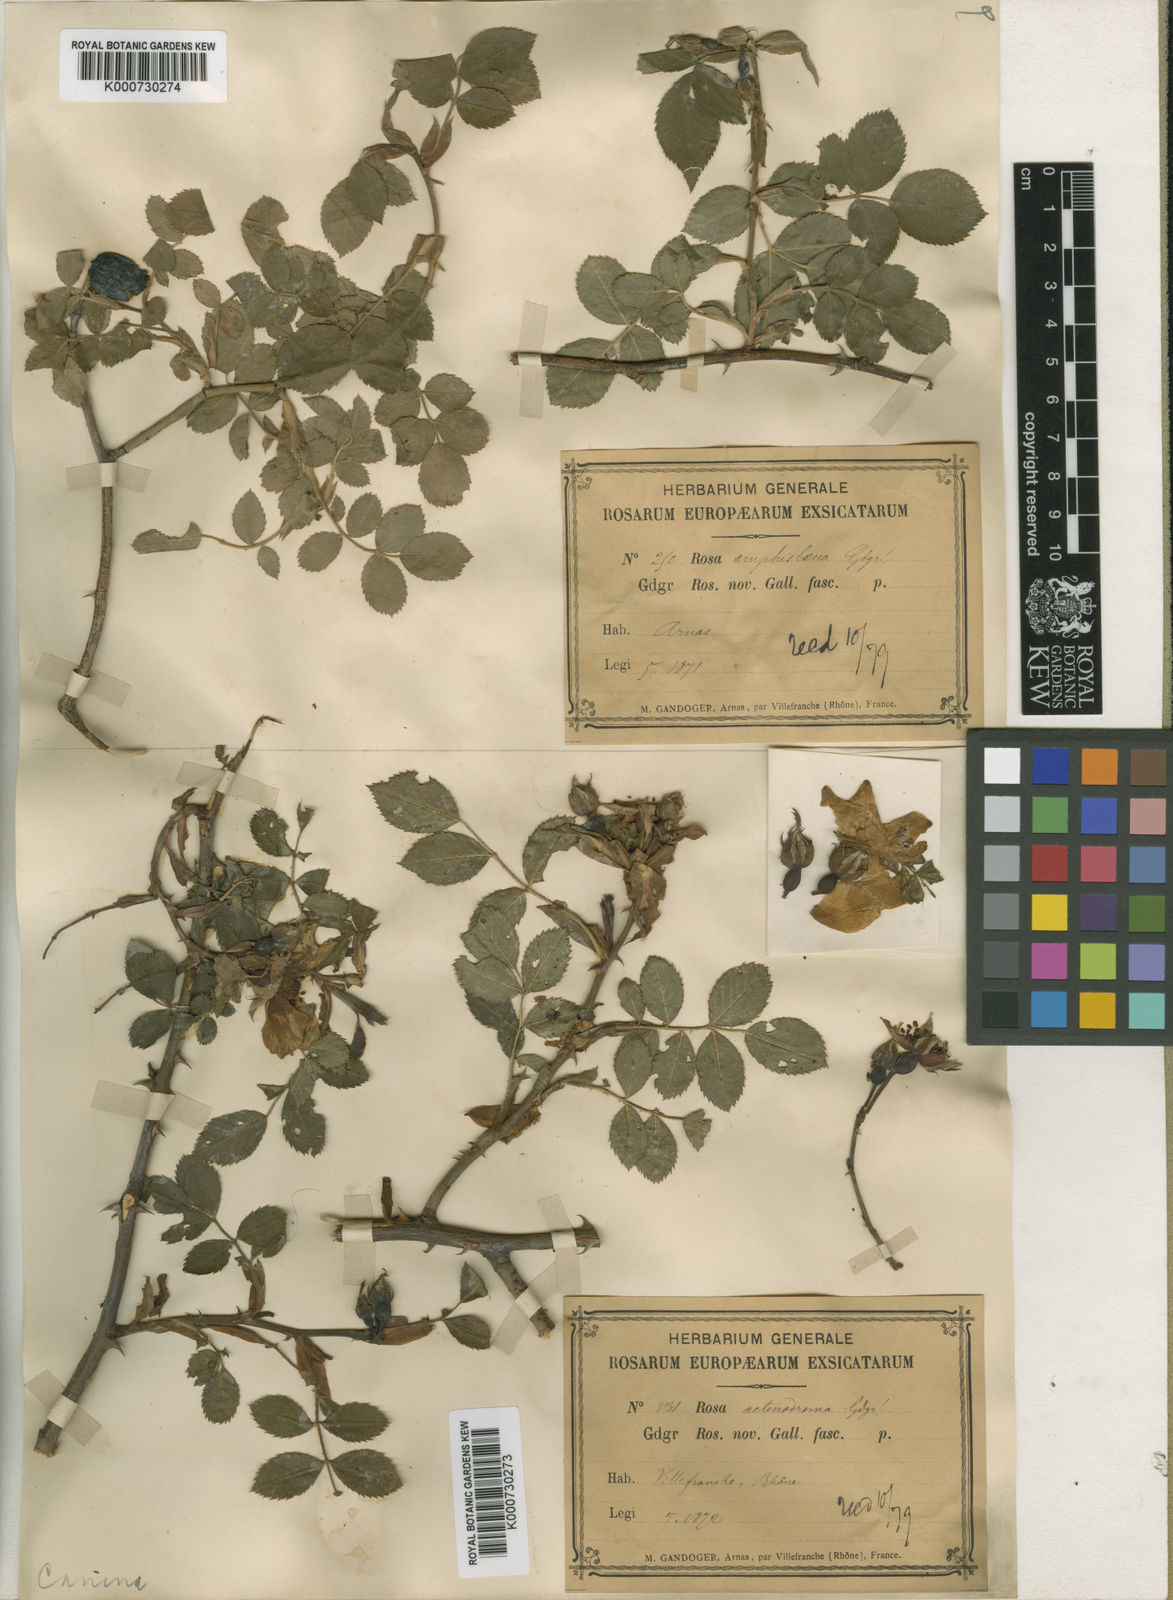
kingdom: Plantae
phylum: Tracheophyta
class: Magnoliopsida
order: Rosales
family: Rosaceae
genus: Rosa
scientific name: Rosa canina
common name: Dog rose
